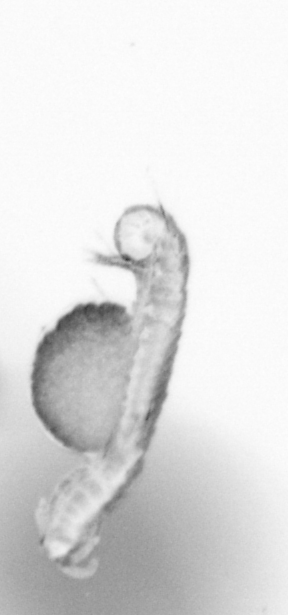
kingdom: Animalia
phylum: Annelida
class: Polychaeta
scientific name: Polychaeta
